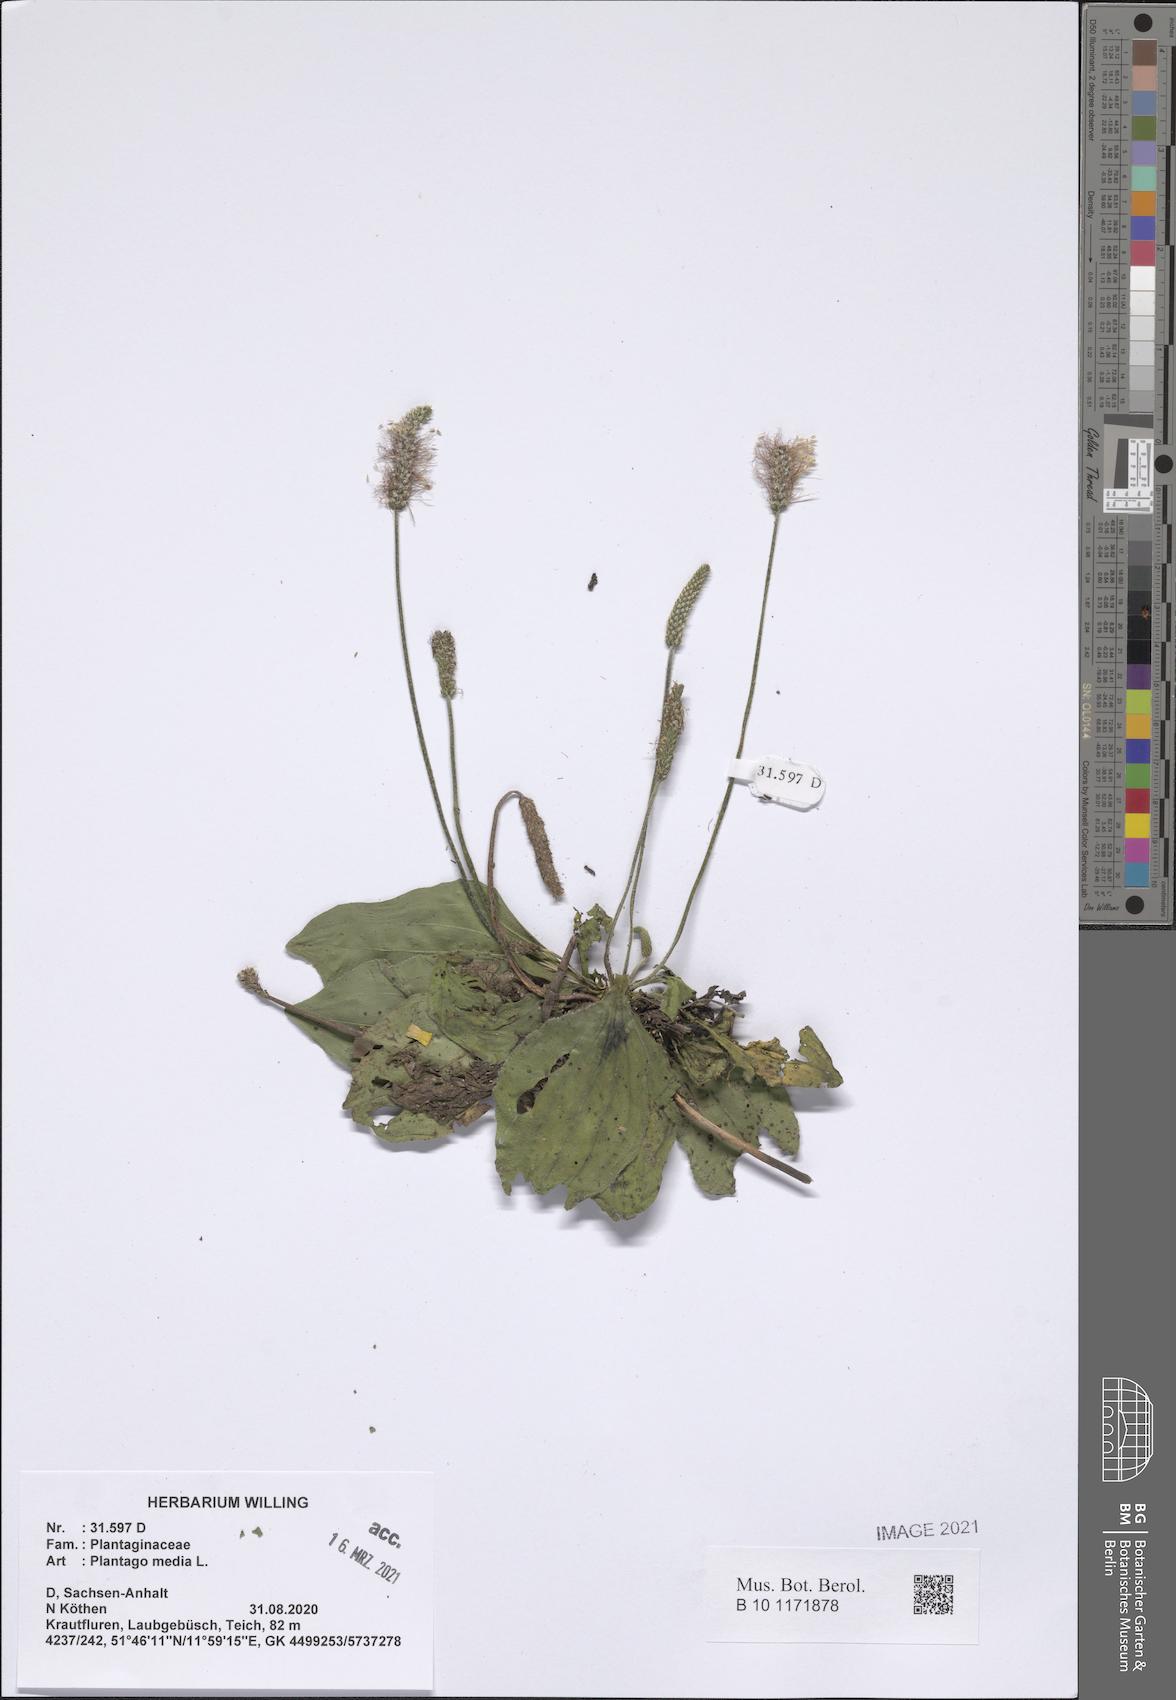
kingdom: Plantae
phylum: Tracheophyta
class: Magnoliopsida
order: Lamiales
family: Plantaginaceae
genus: Plantago
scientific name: Plantago media
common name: Hoary plantain
